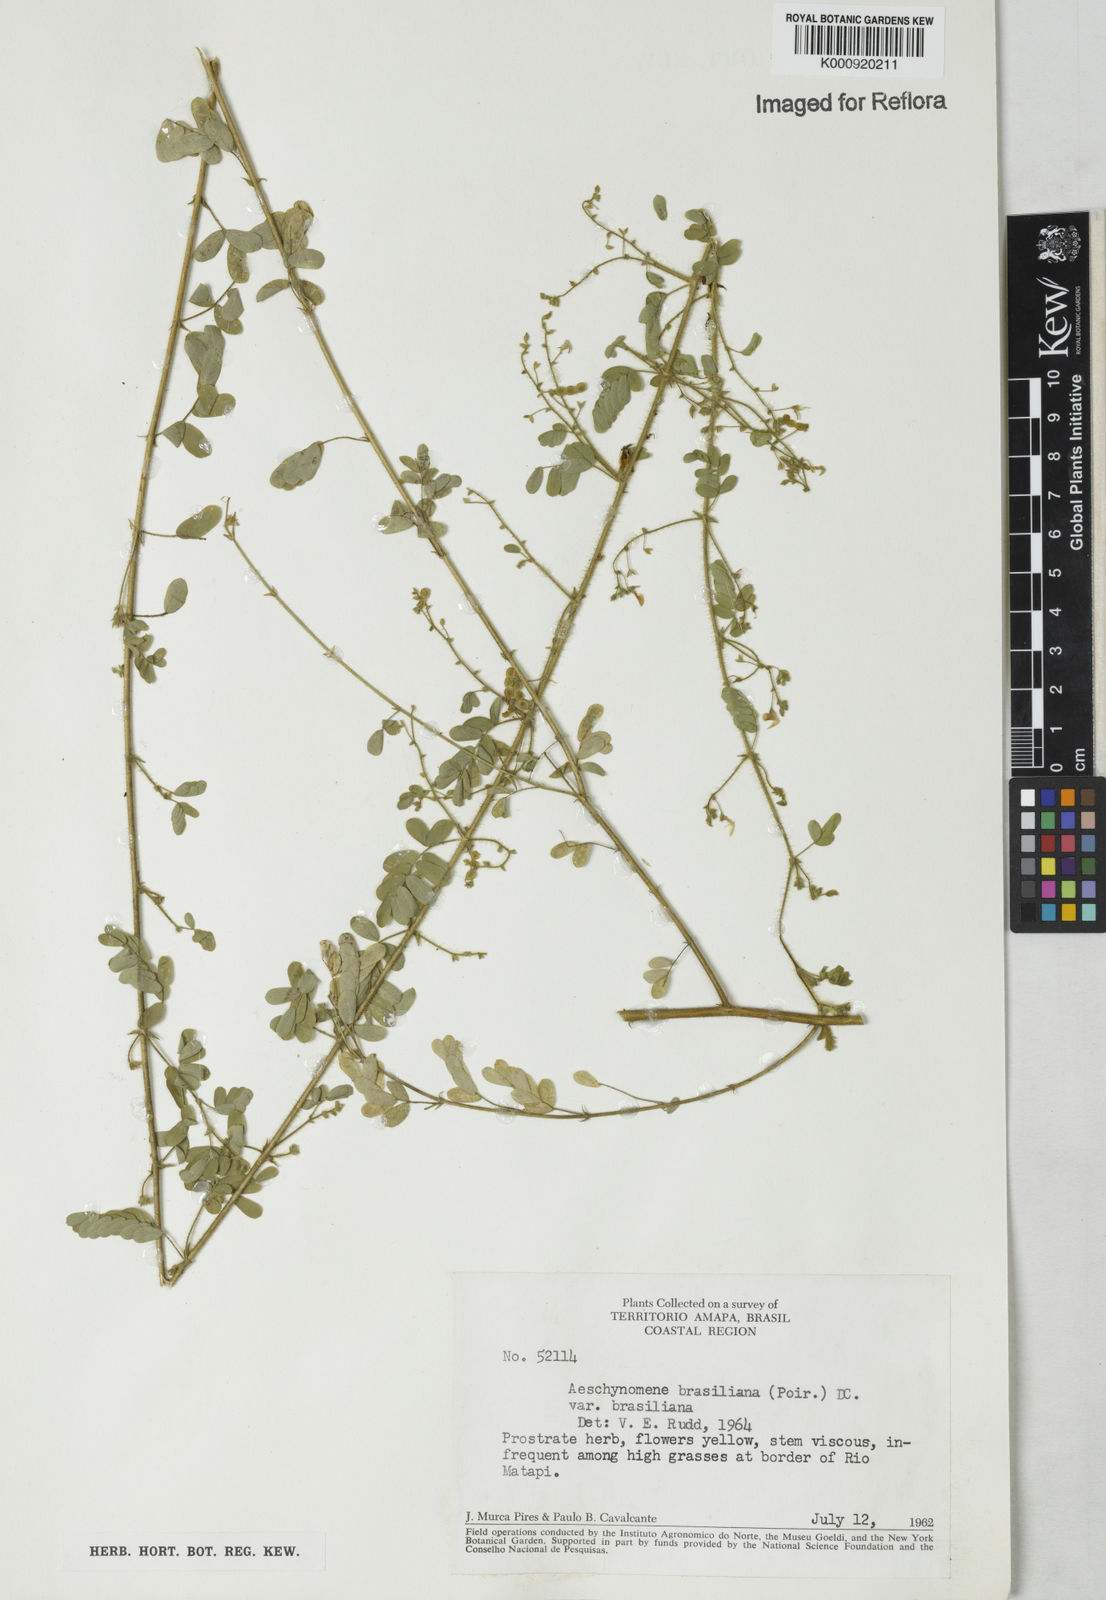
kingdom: Plantae
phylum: Tracheophyta
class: Magnoliopsida
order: Fabales
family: Fabaceae
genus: Ctenodon
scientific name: Ctenodon brasilianus
